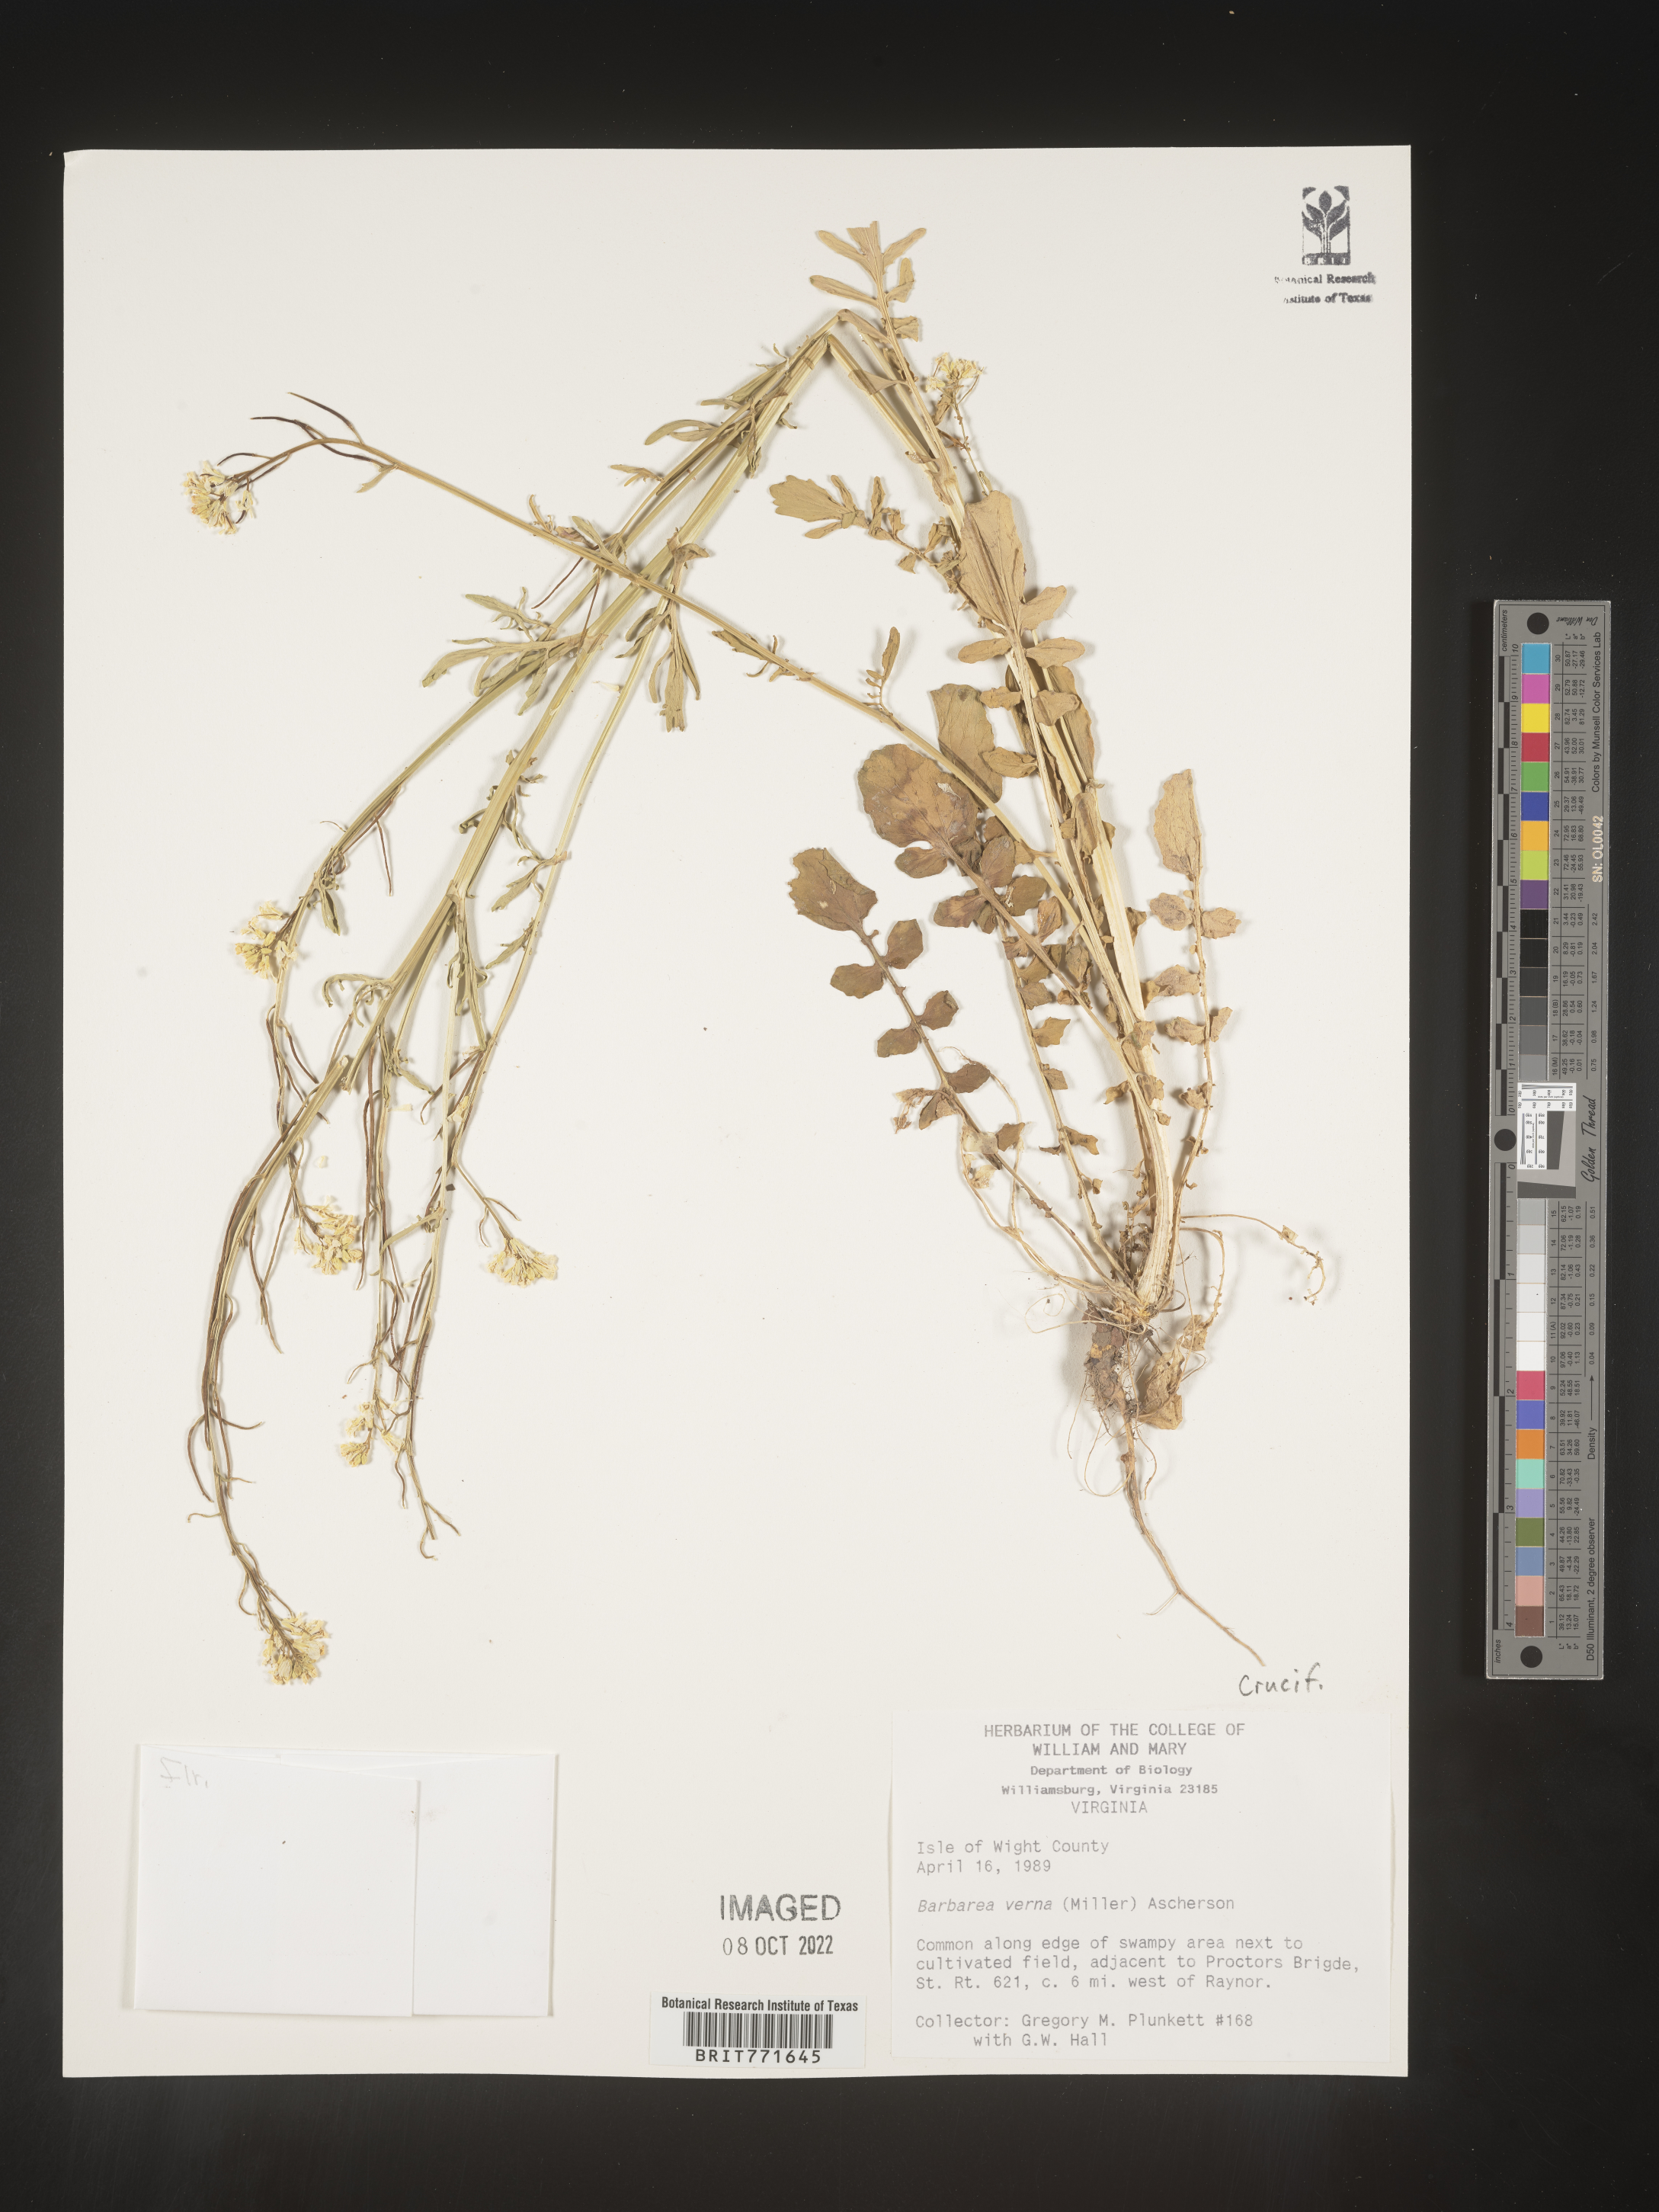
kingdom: Plantae
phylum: Tracheophyta
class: Magnoliopsida
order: Brassicales
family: Brassicaceae
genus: Barbarea
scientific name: Barbarea verna
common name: American cress
